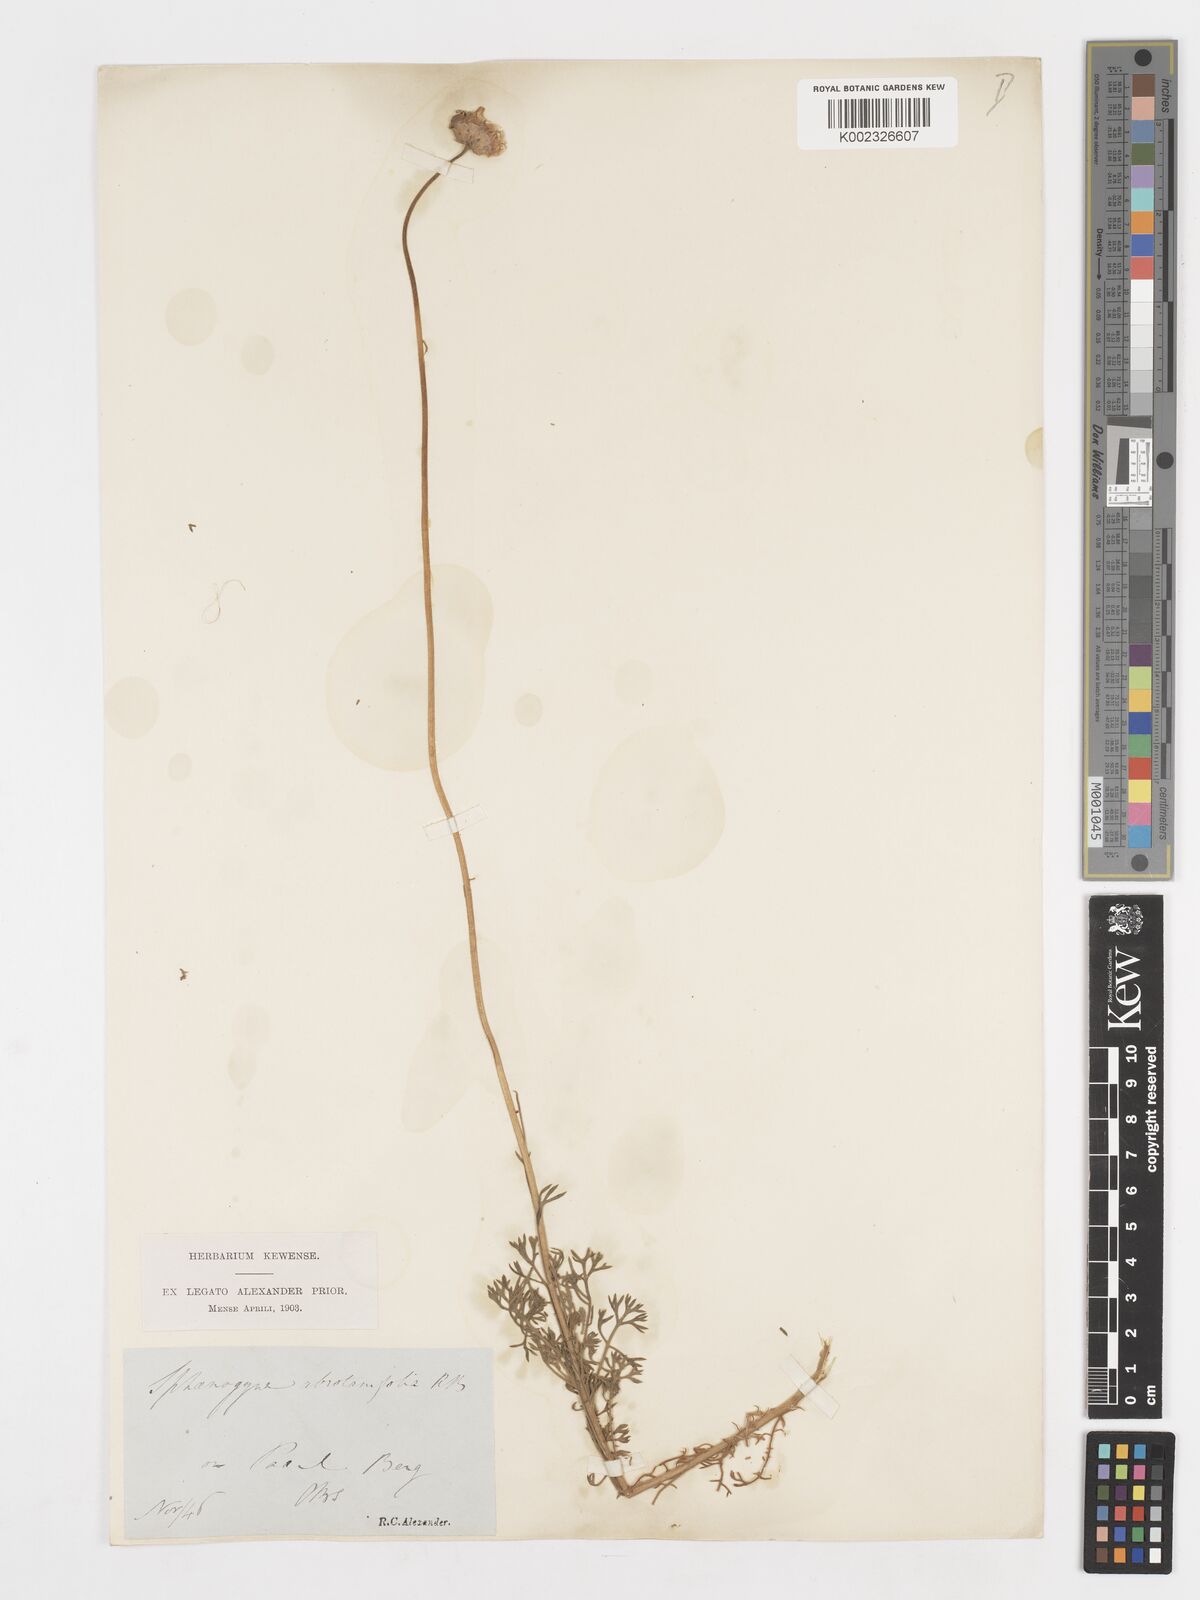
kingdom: Plantae
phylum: Tracheophyta
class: Magnoliopsida
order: Asterales
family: Asteraceae
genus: Ursinia
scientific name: Ursinia abrotanifolia
